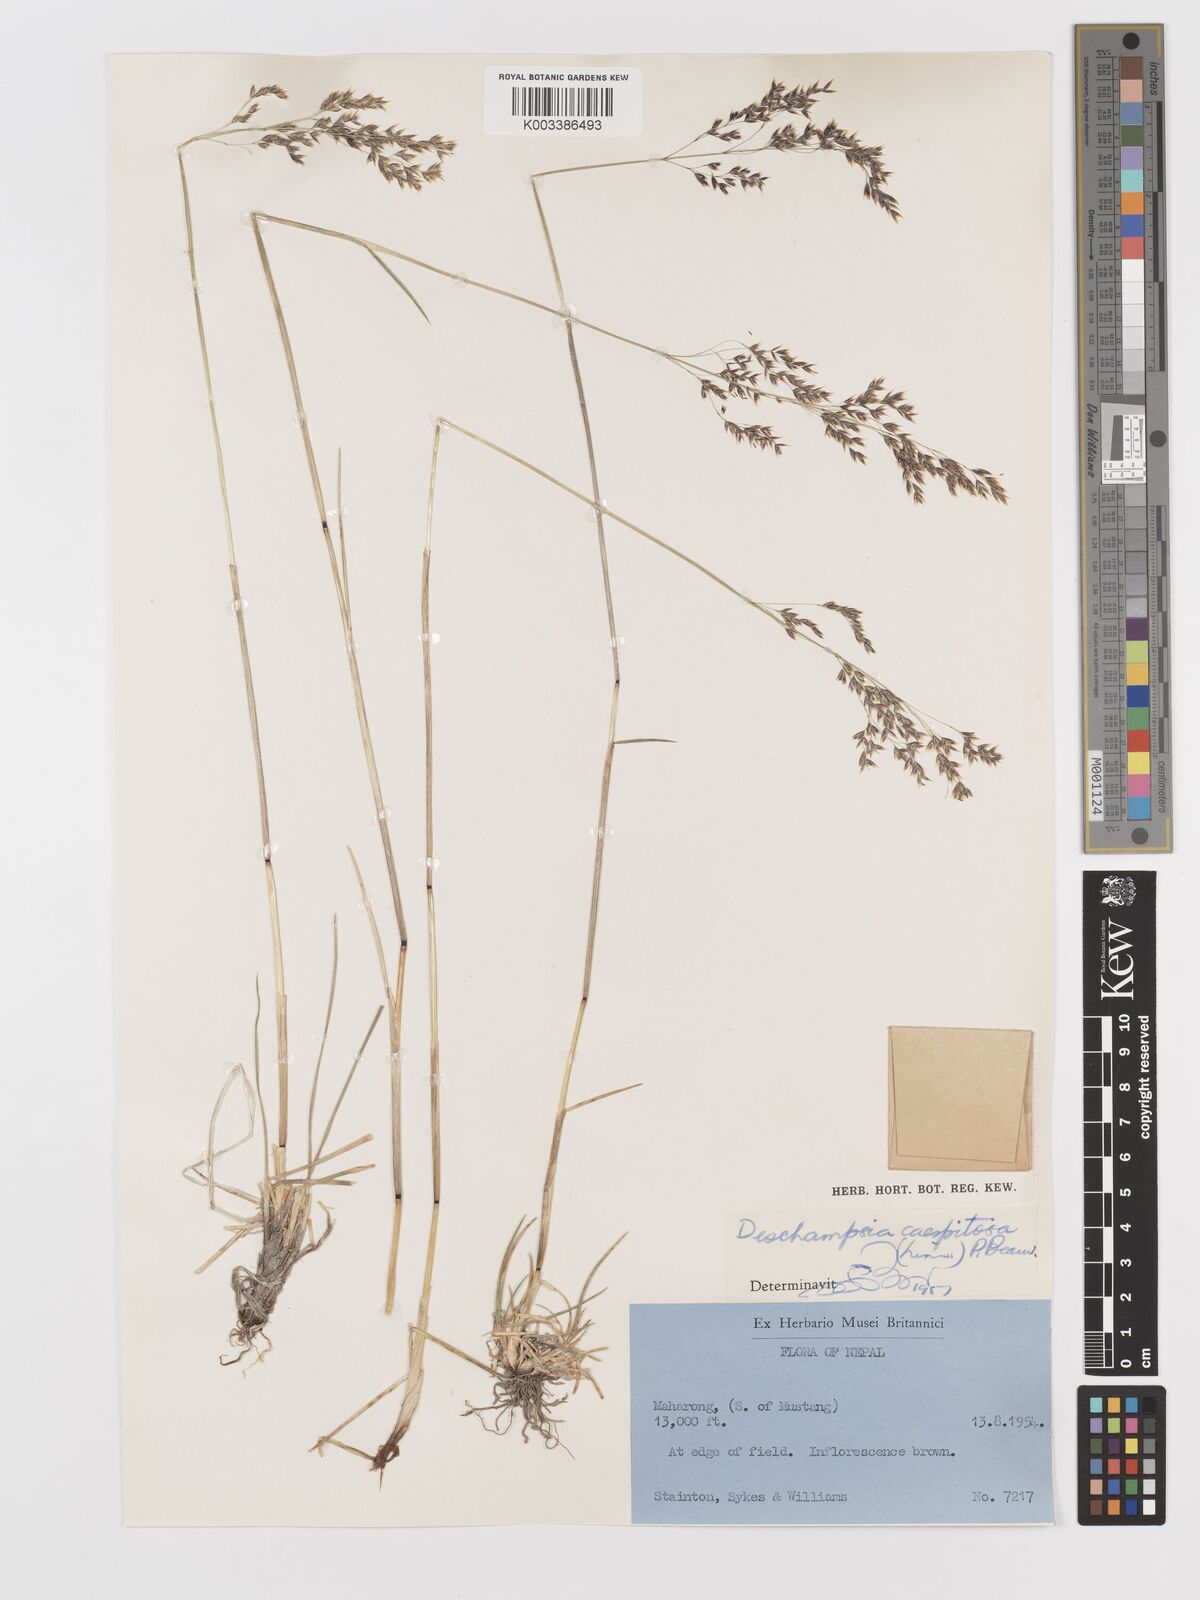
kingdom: Plantae
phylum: Tracheophyta
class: Liliopsida
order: Poales
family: Poaceae
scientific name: Poaceae
